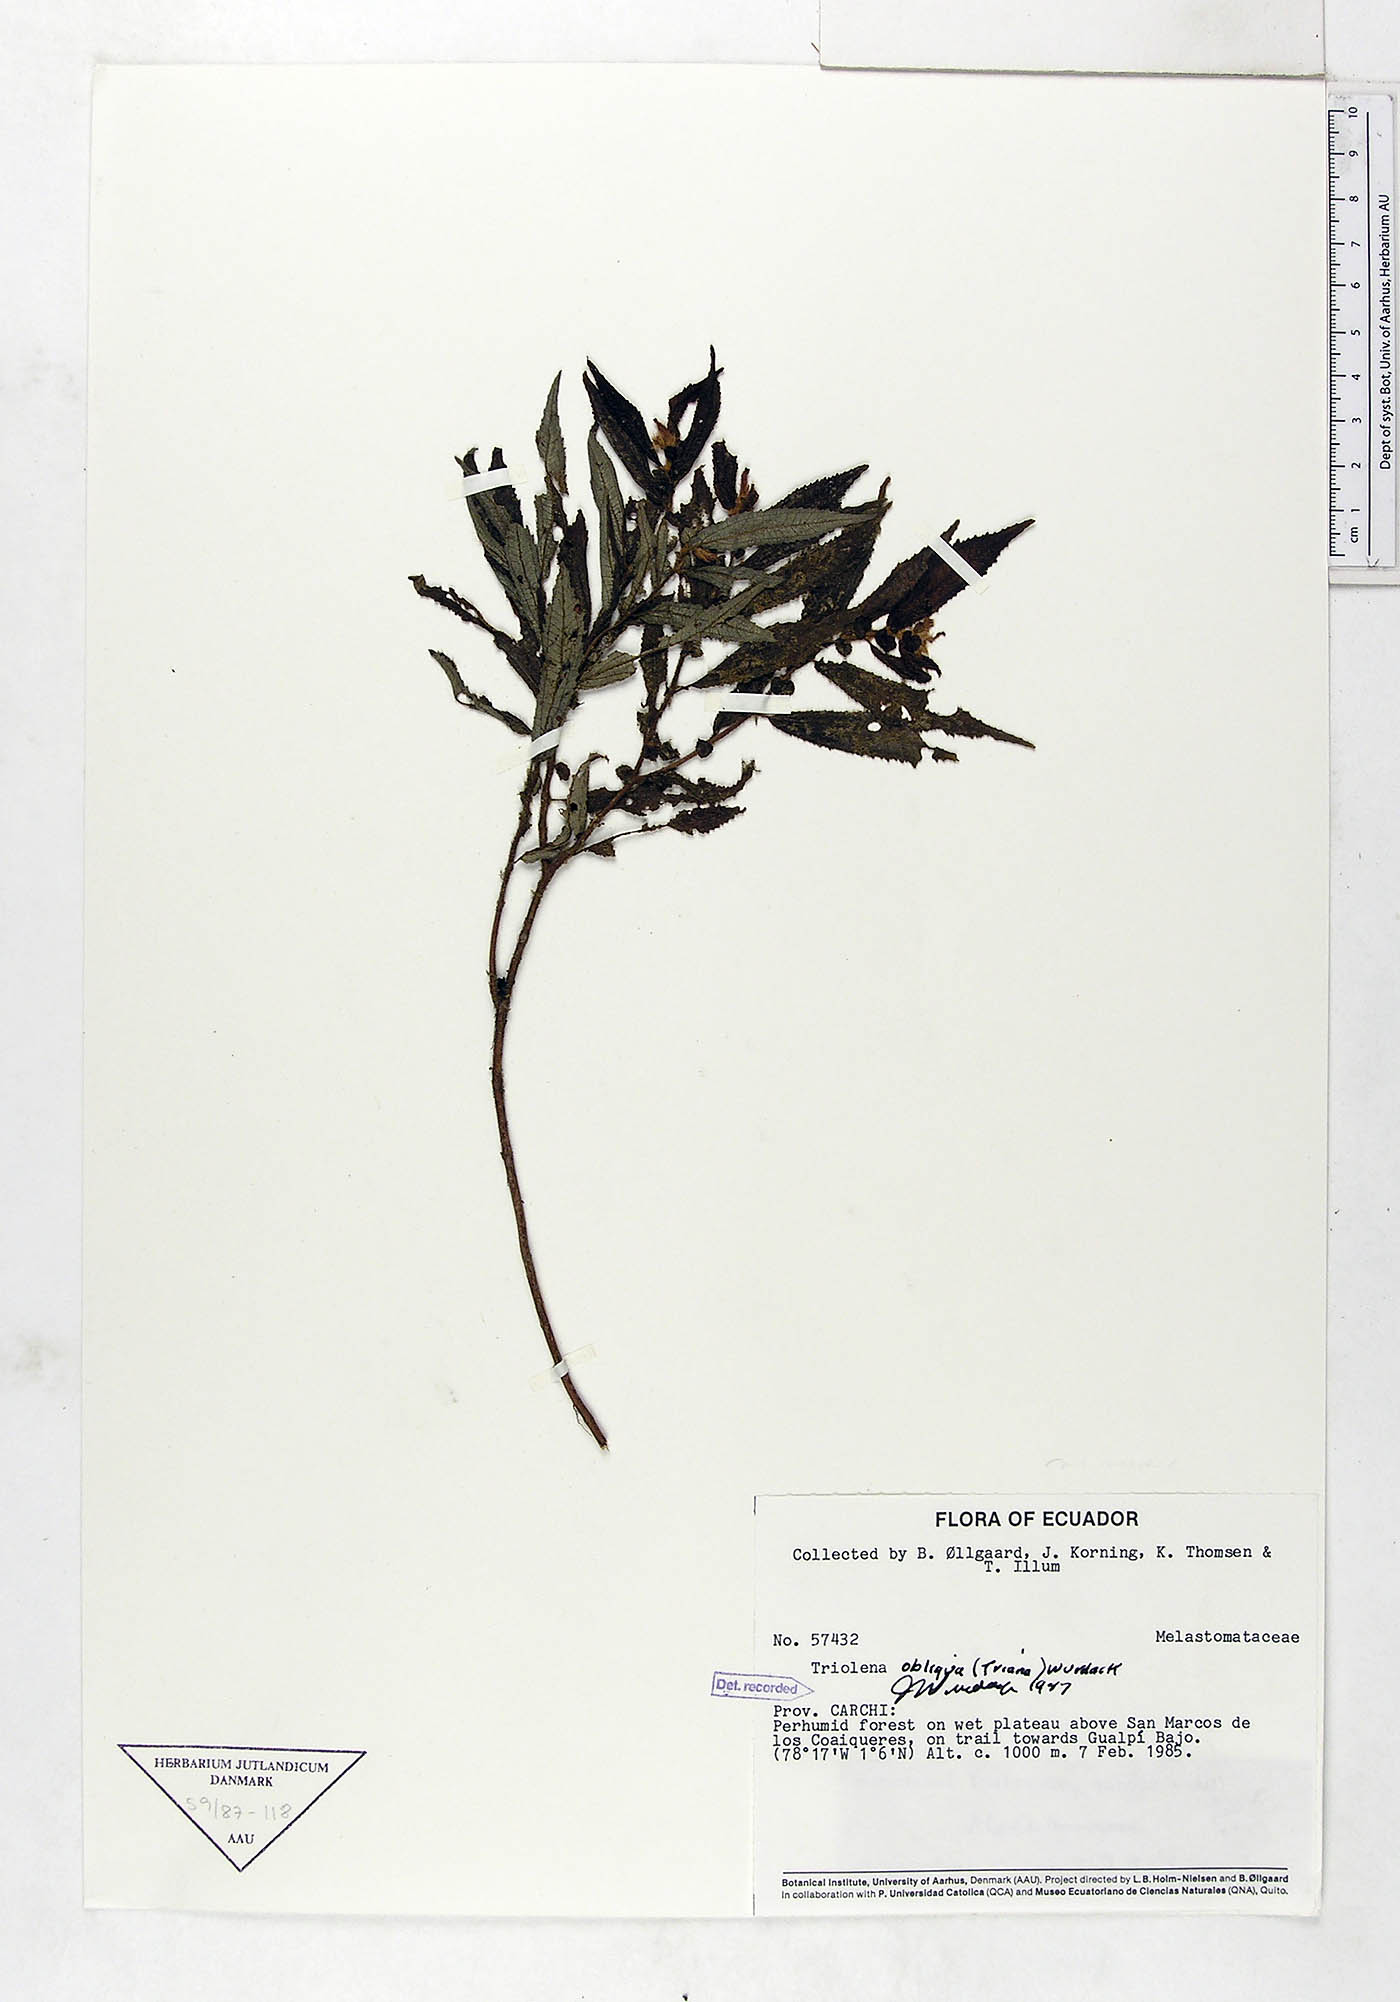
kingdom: Plantae
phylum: Tracheophyta
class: Magnoliopsida
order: Myrtales
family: Melastomataceae
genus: Triolena
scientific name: Triolena obliqua
